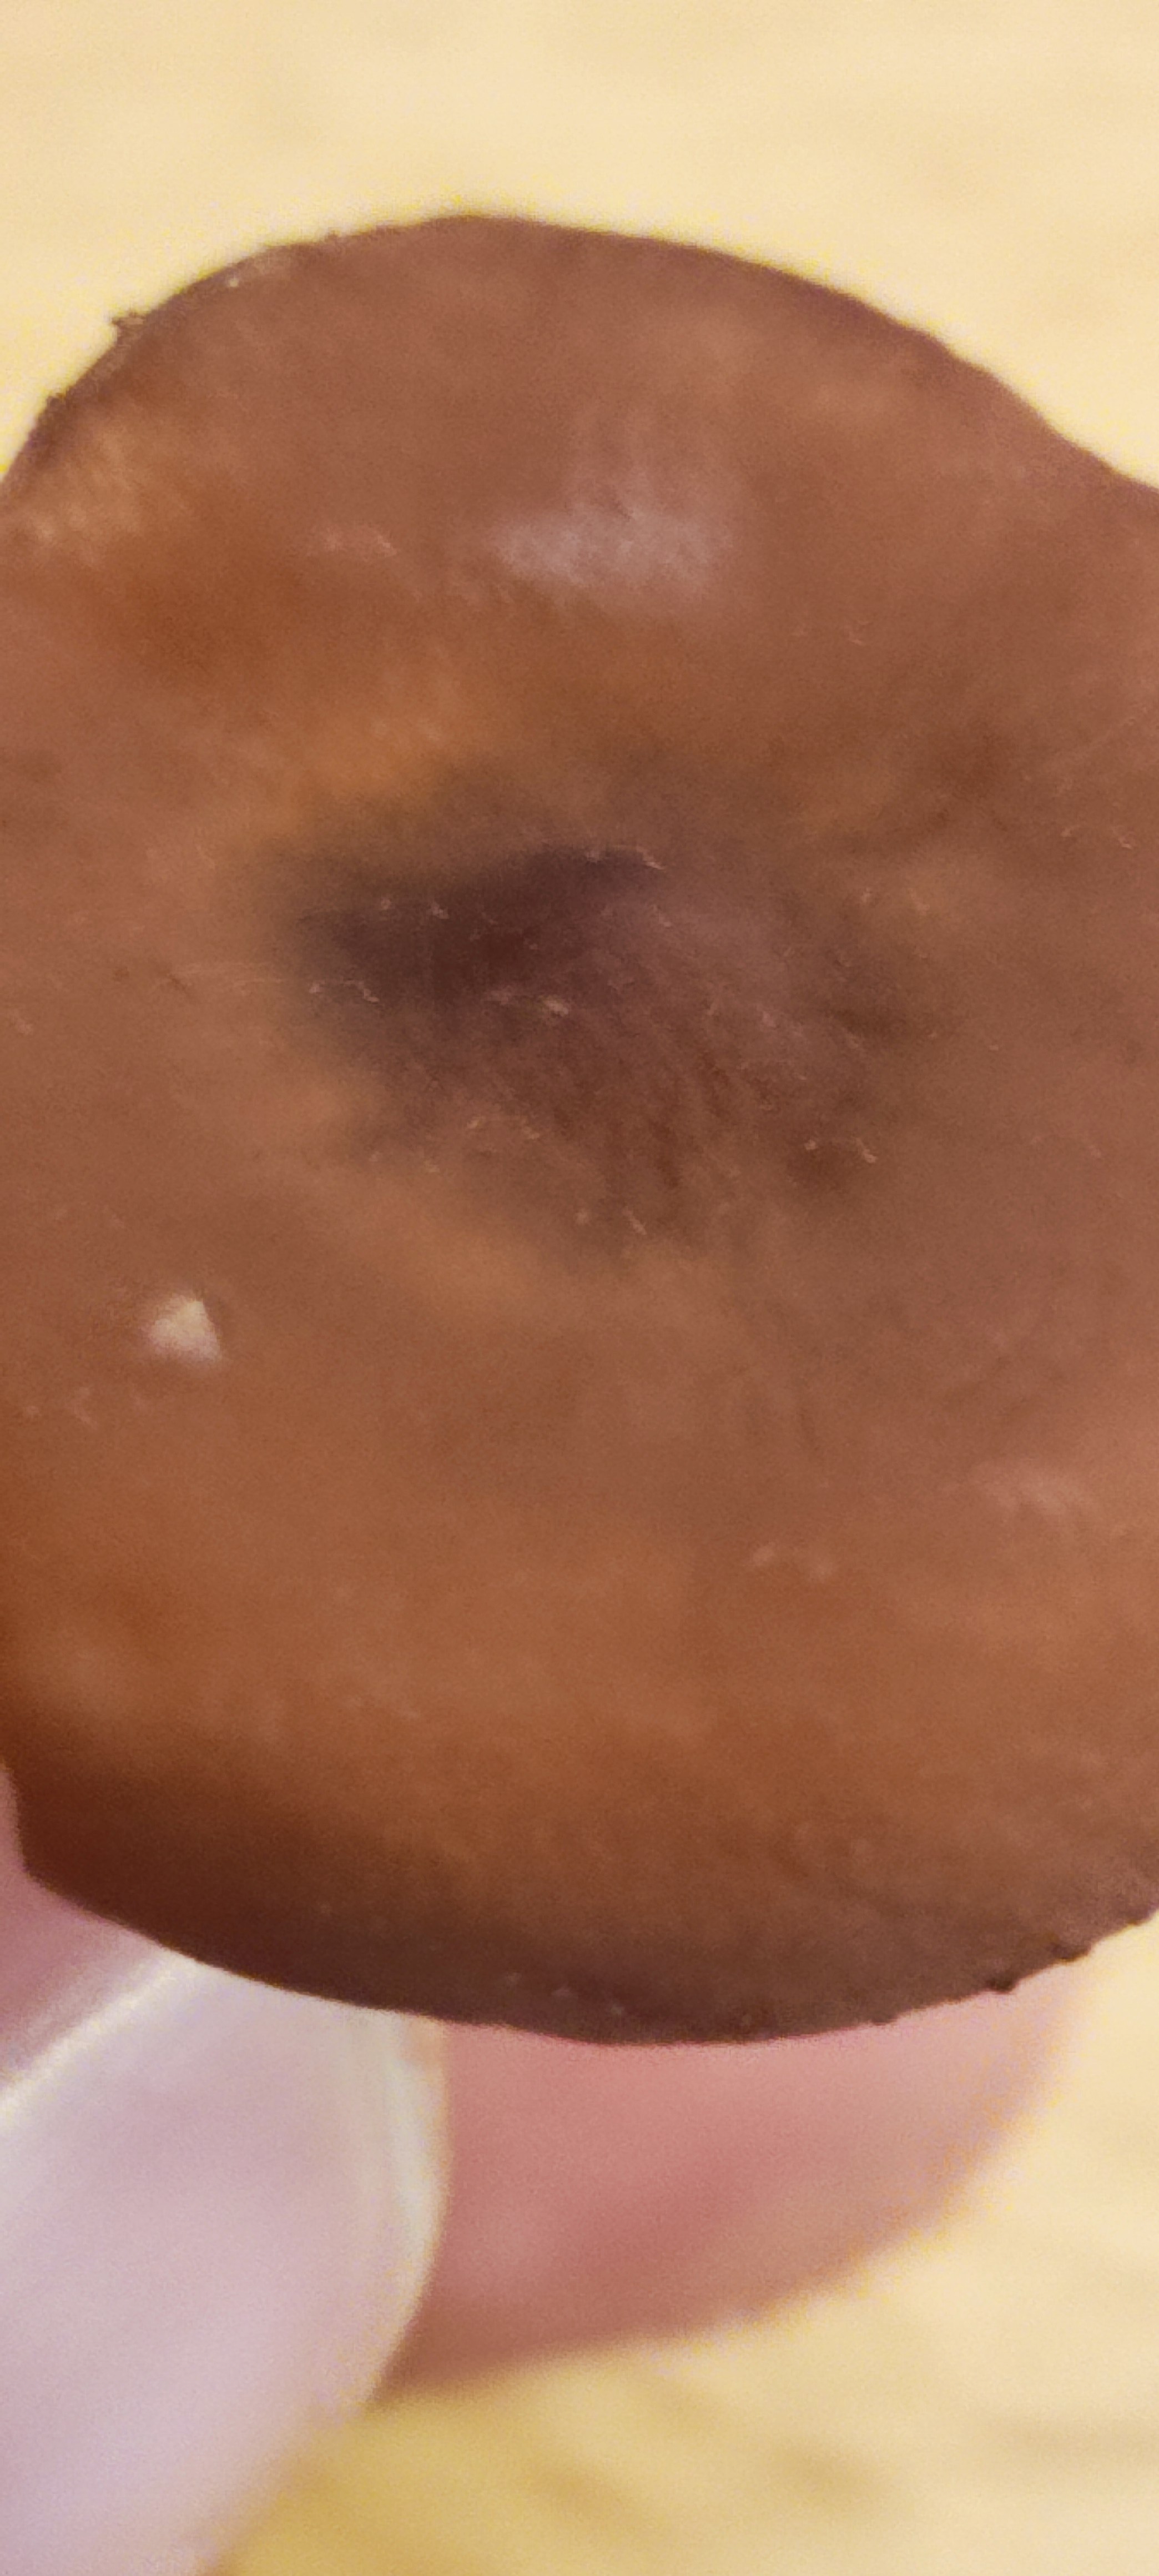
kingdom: Fungi
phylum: Basidiomycota
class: Agaricomycetes
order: Russulales
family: Russulaceae
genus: Lactarius
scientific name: Lactarius camphoratus
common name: kamfer-mælkehat
